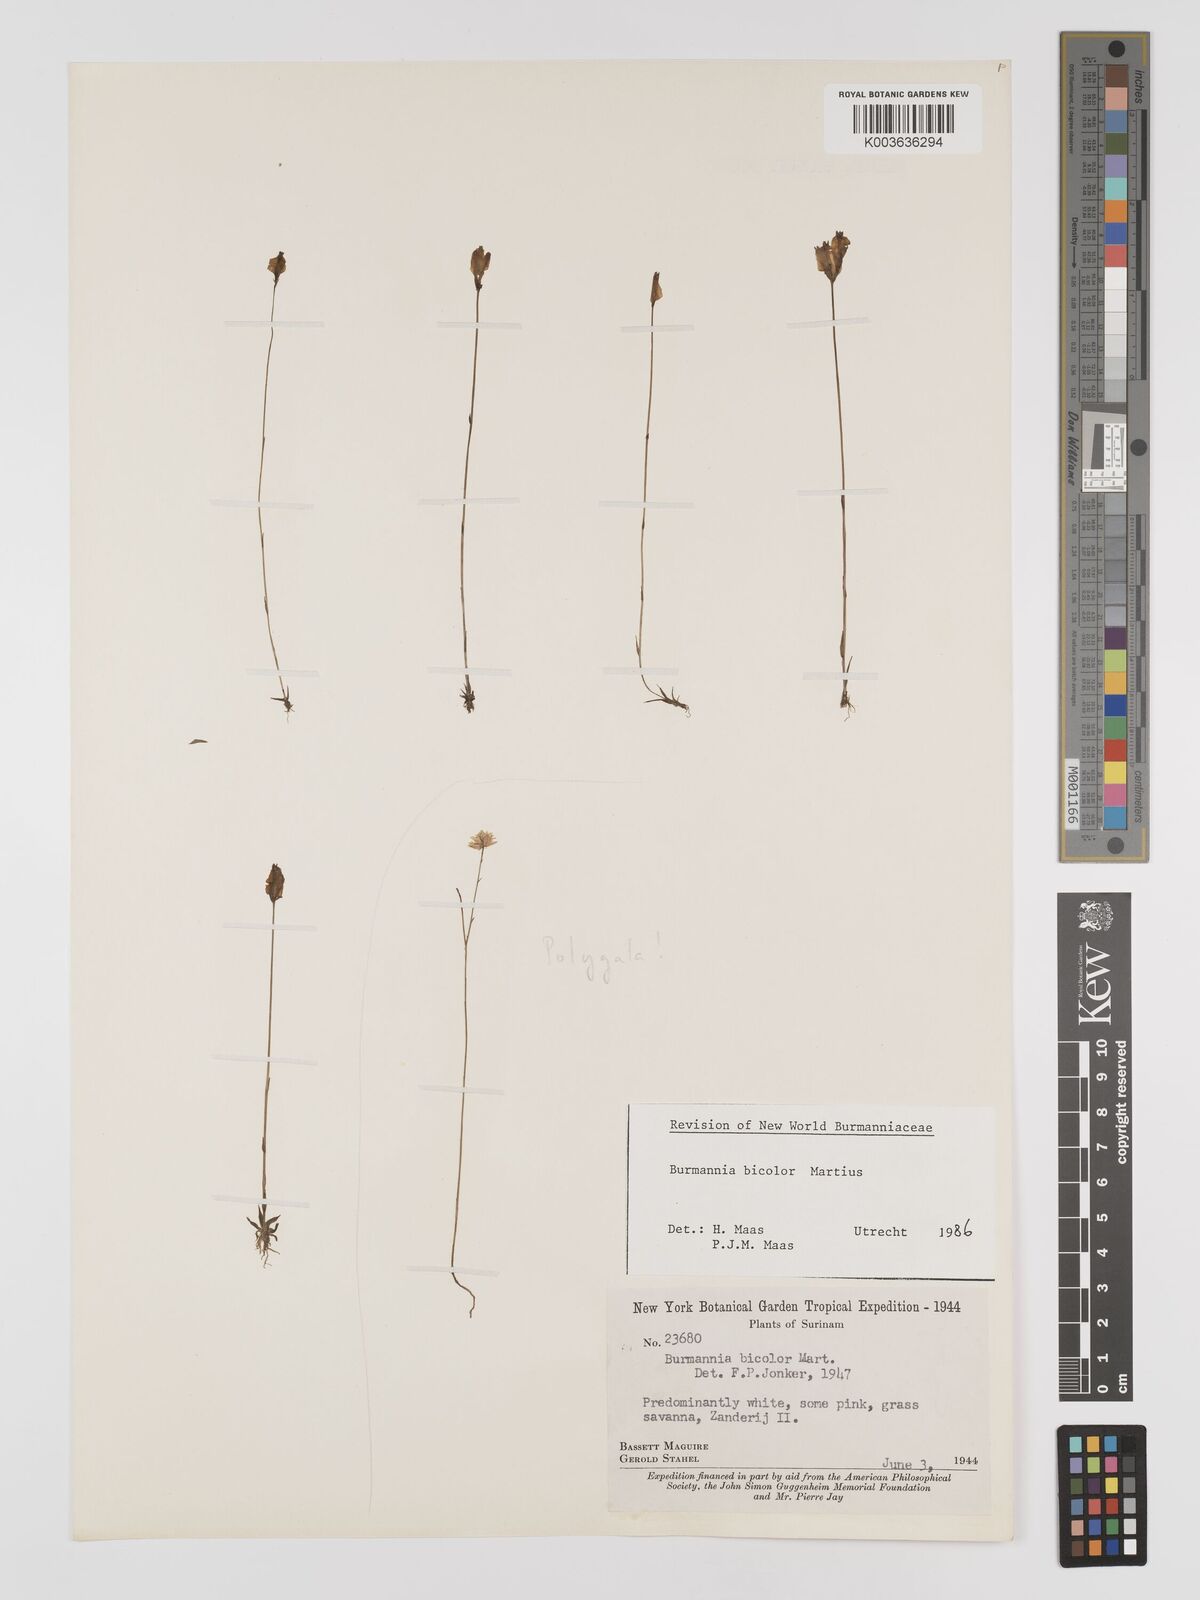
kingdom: Plantae
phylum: Tracheophyta
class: Liliopsida
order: Dioscoreales
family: Burmanniaceae
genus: Burmannia
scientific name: Burmannia bicolor
